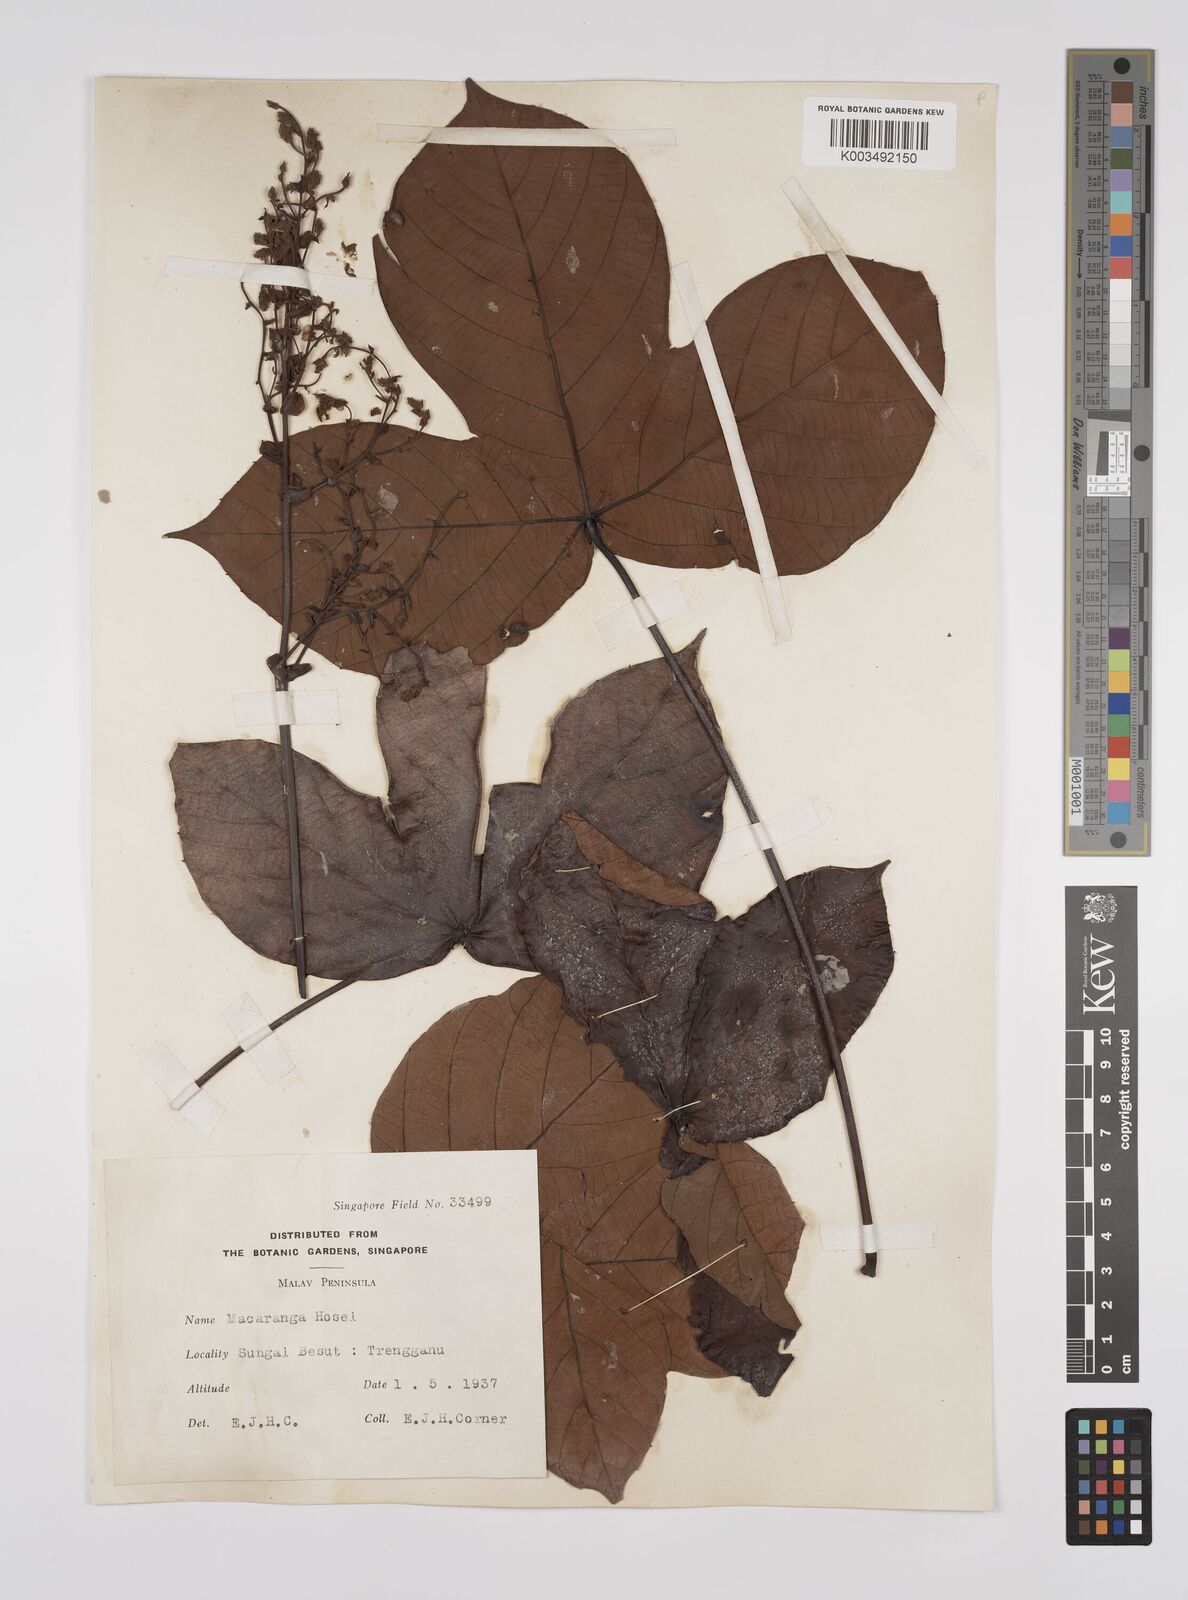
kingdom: Plantae
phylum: Tracheophyta
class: Magnoliopsida
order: Malpighiales
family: Euphorbiaceae
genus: Macaranga
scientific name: Macaranga hosei
